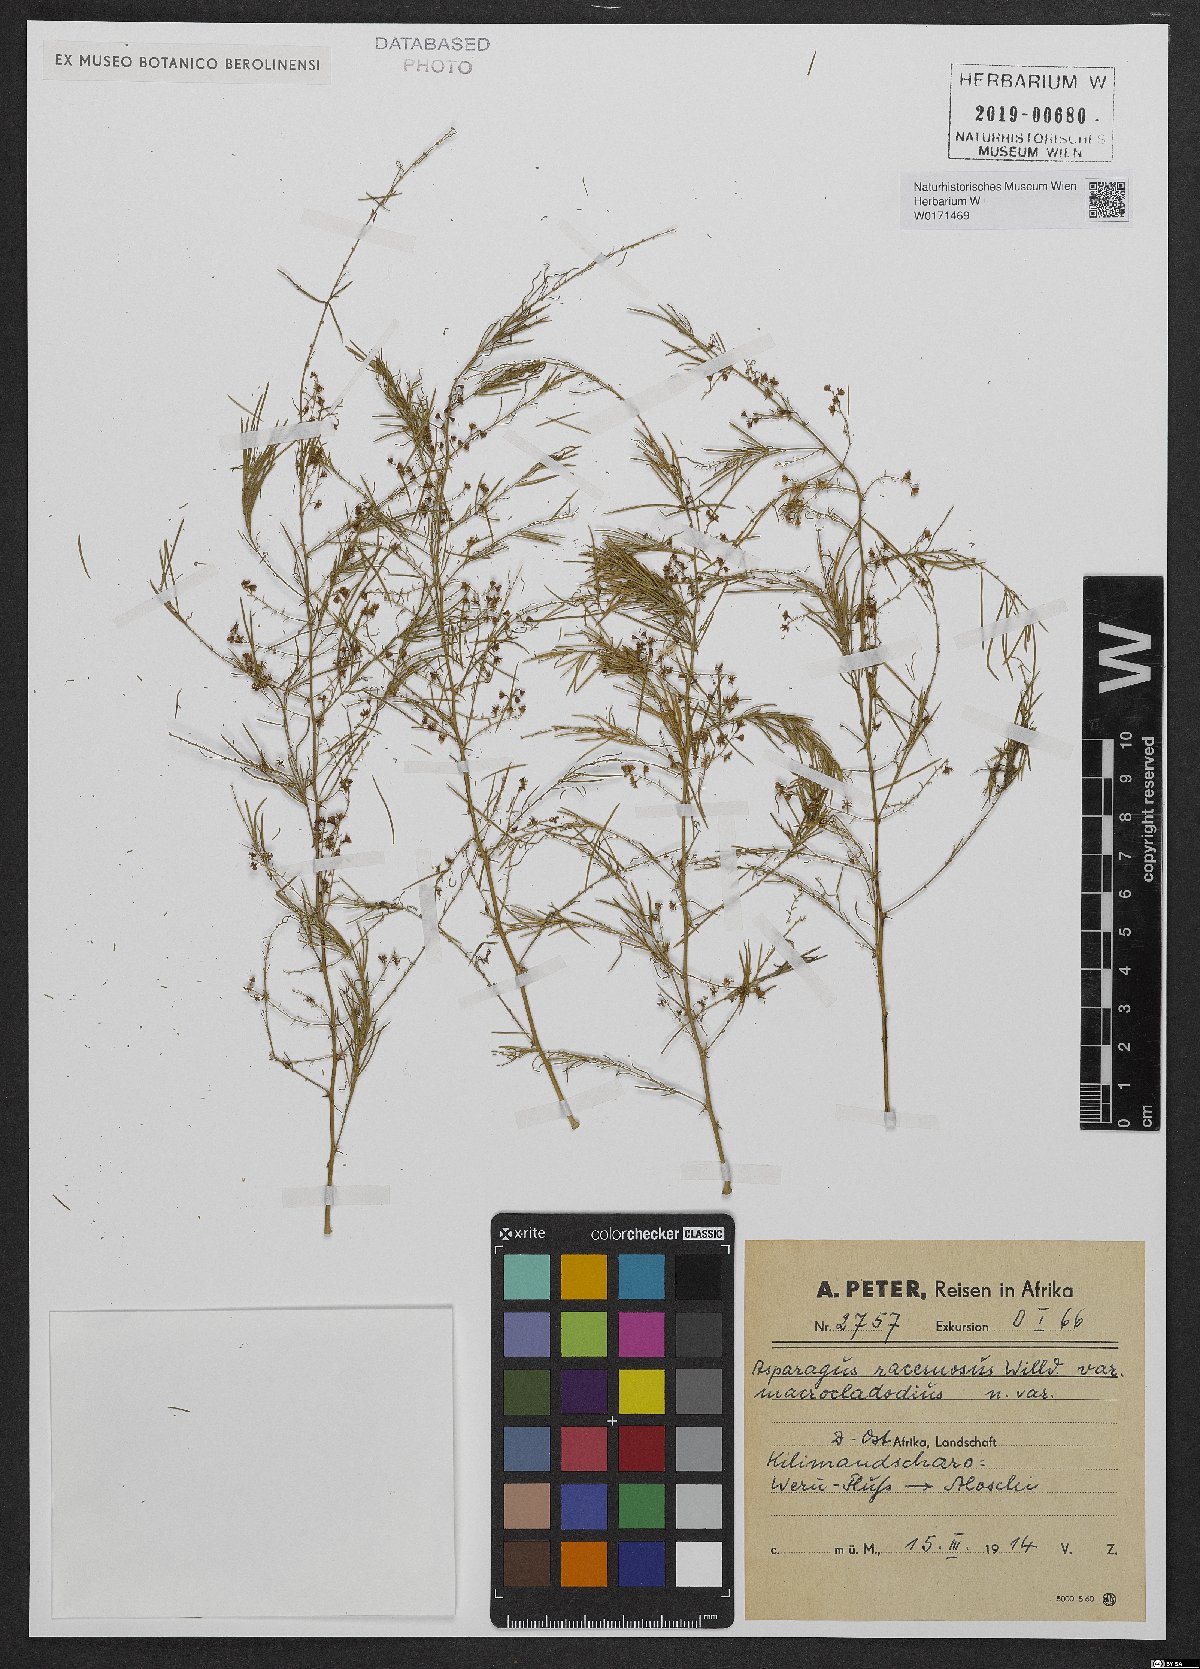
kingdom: Plantae
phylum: Tracheophyta
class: Liliopsida
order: Asparagales
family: Asparagaceae
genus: Asparagus
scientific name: Asparagus racemosus
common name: Asparagus-fern
